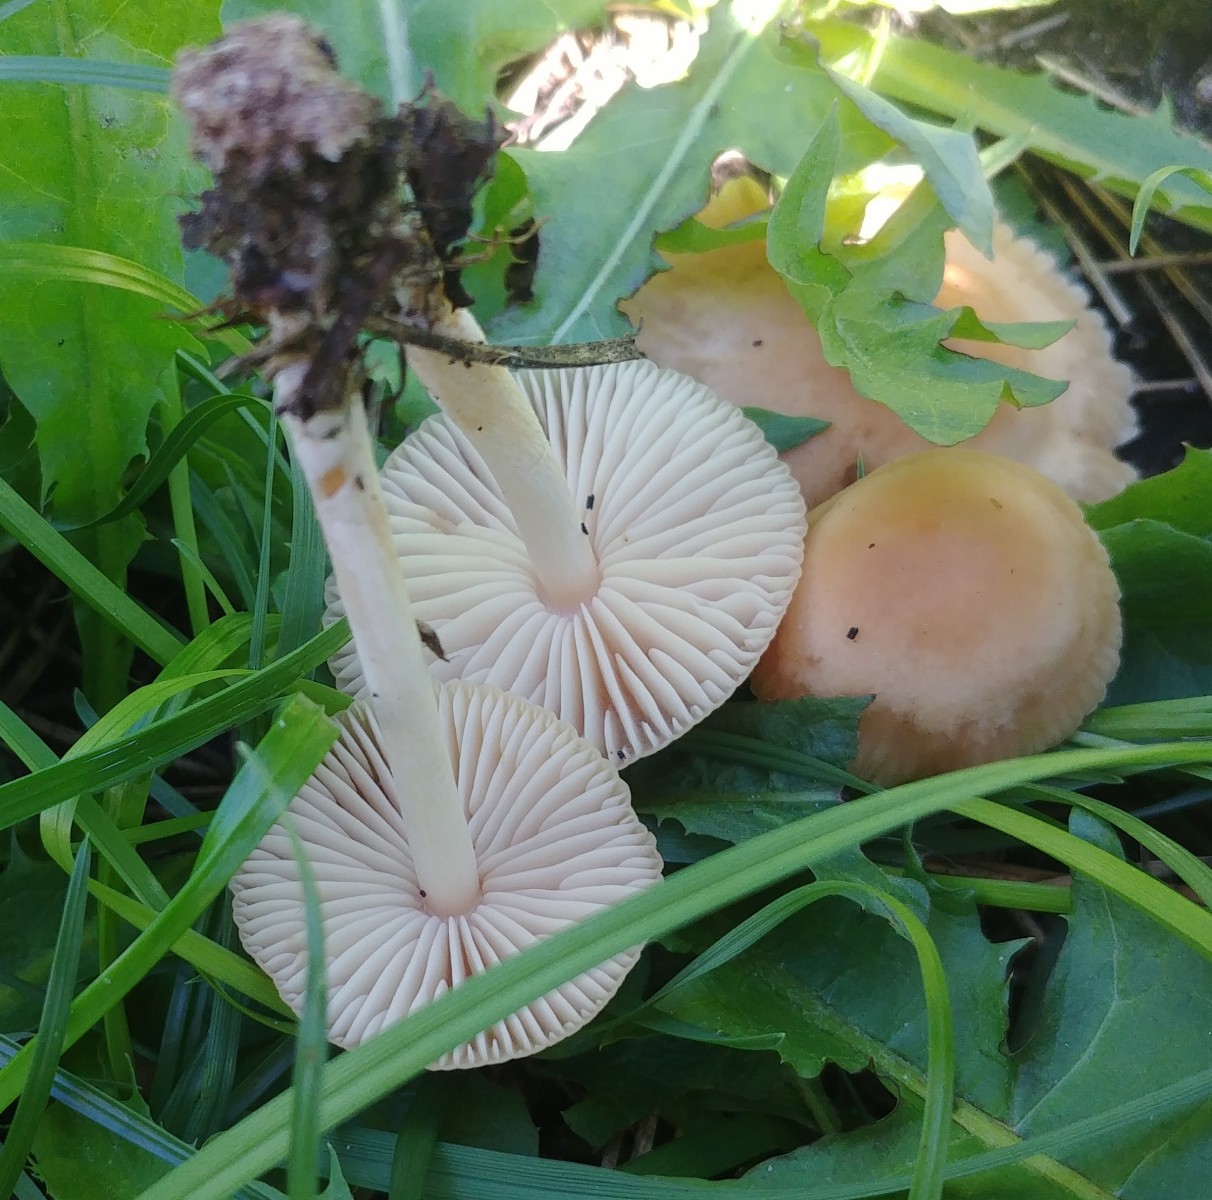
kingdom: Fungi
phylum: Basidiomycota
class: Agaricomycetes
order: Agaricales
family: Marasmiaceae
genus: Marasmius
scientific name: Marasmius oreades
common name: elledans-bruskhat
